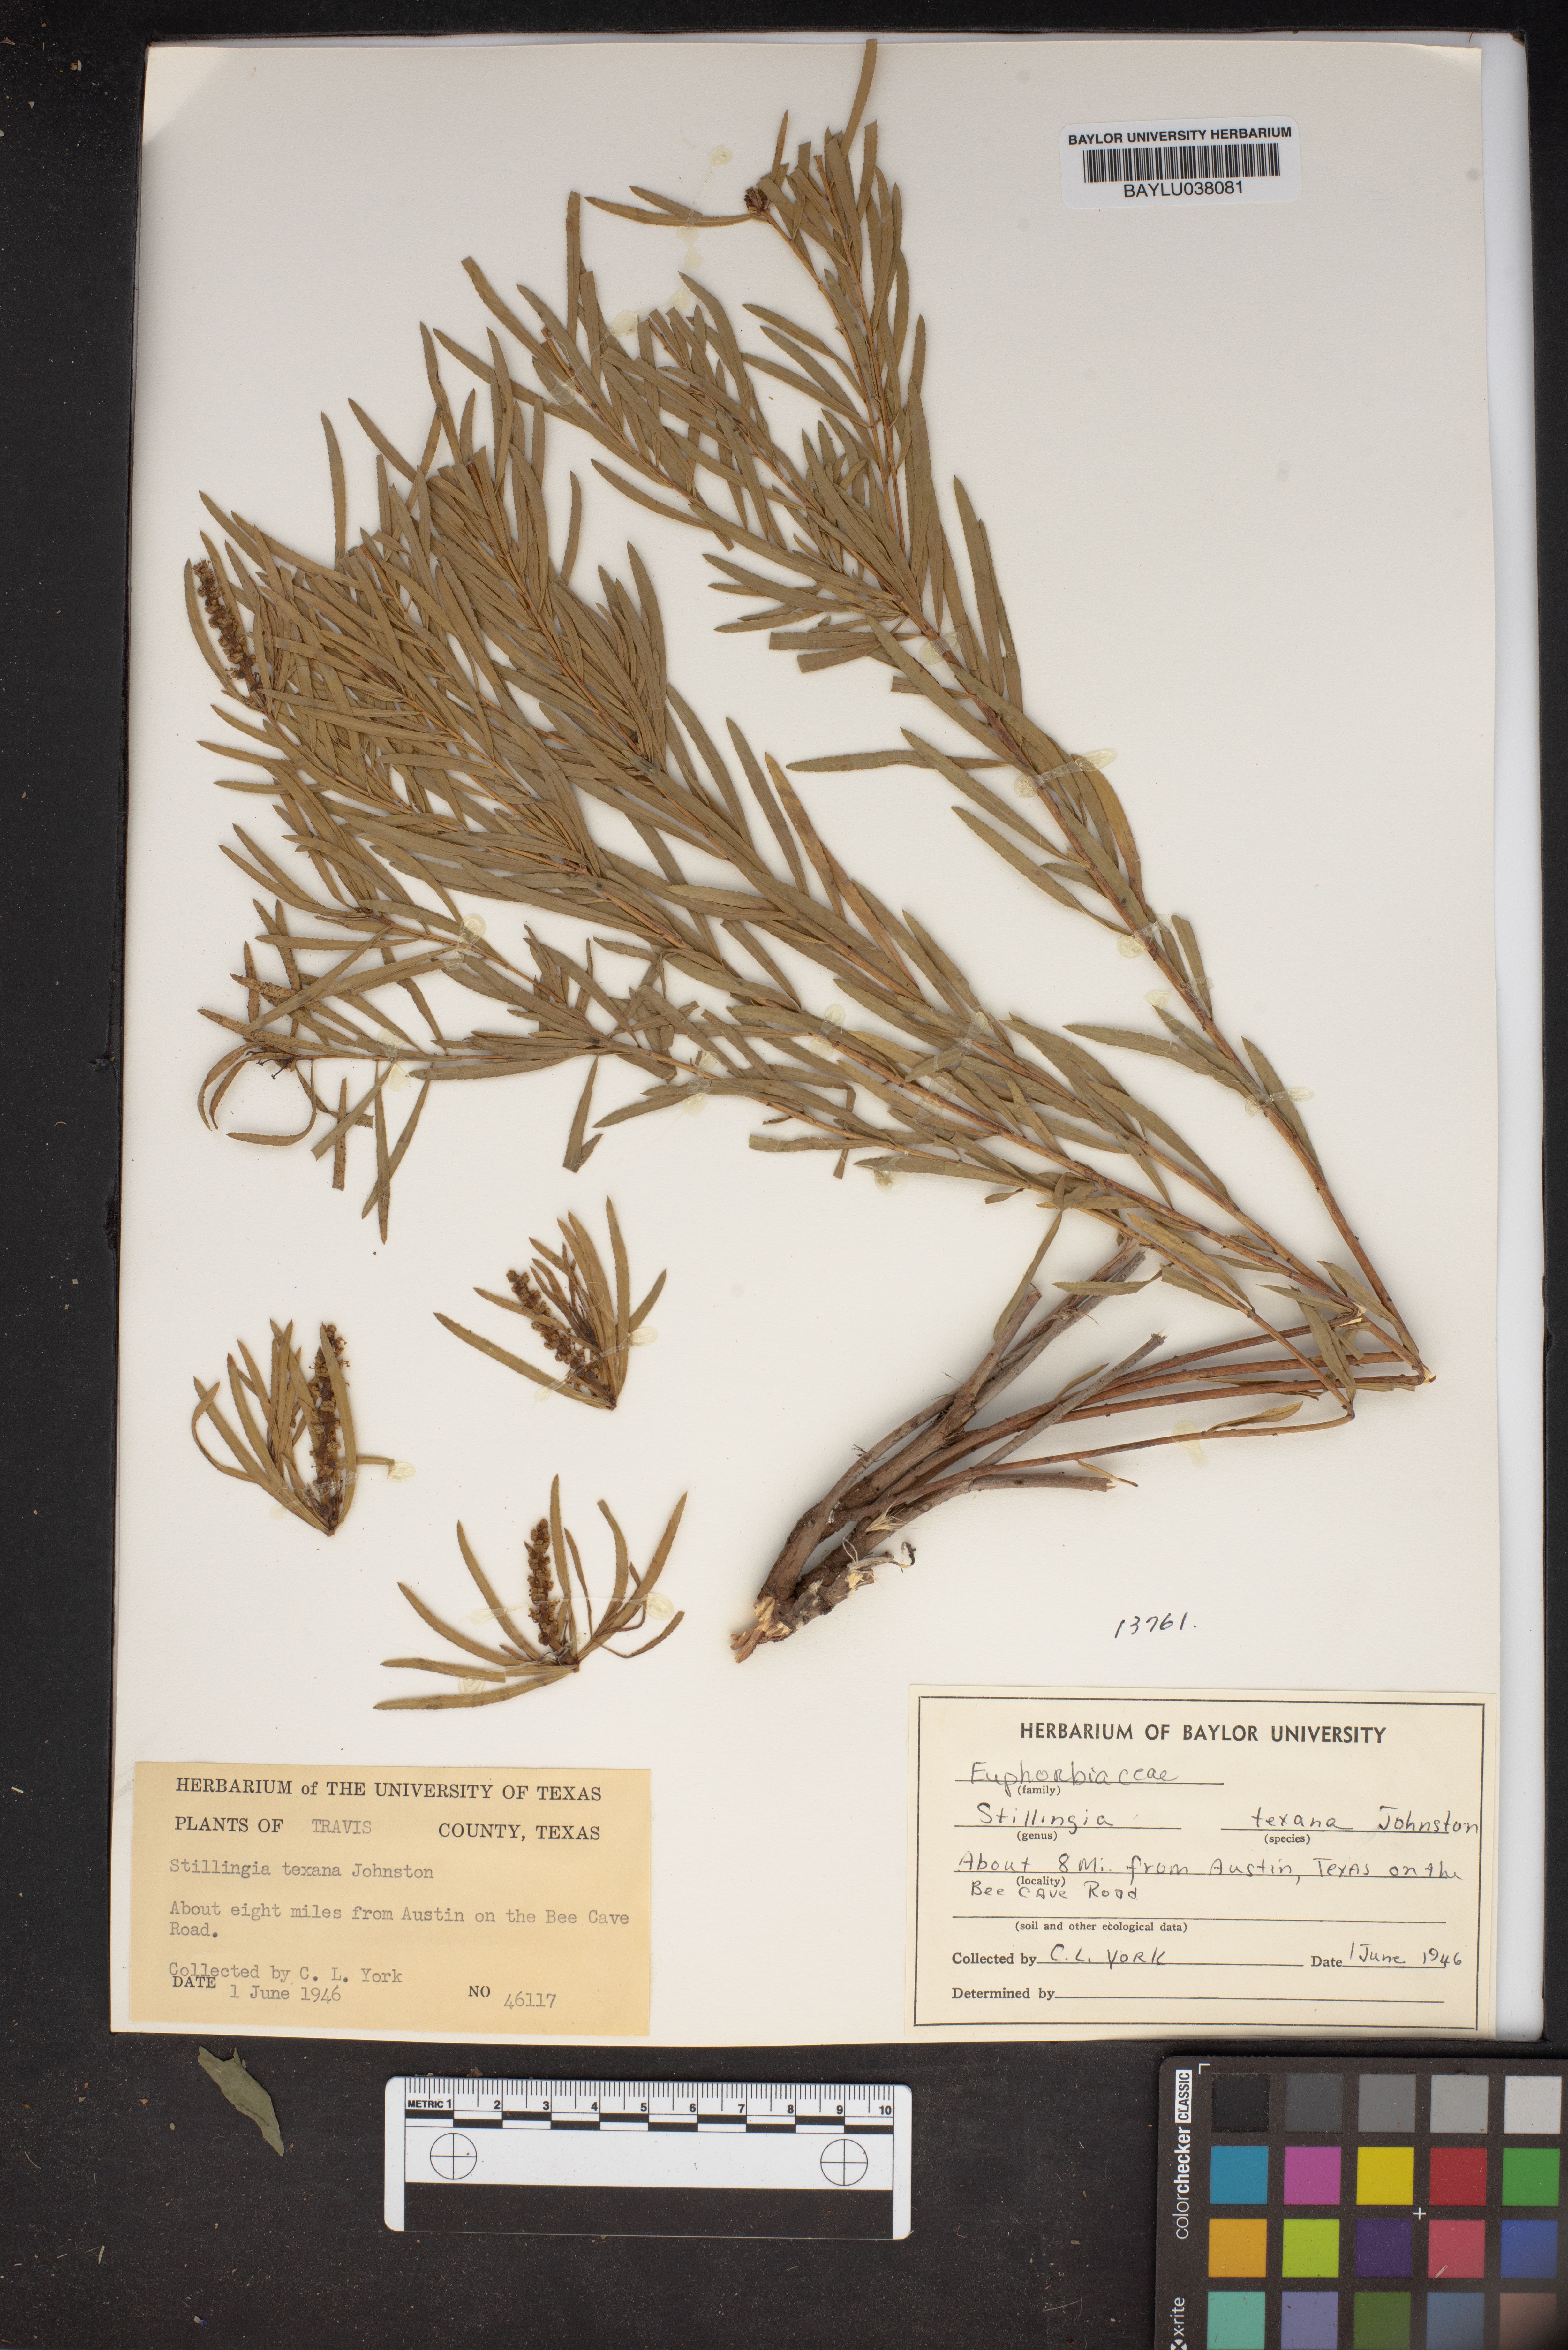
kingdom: Plantae
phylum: Tracheophyta
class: Magnoliopsida
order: Malpighiales
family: Euphorbiaceae
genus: Stillingia
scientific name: Stillingia texana
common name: Texas stillingia
